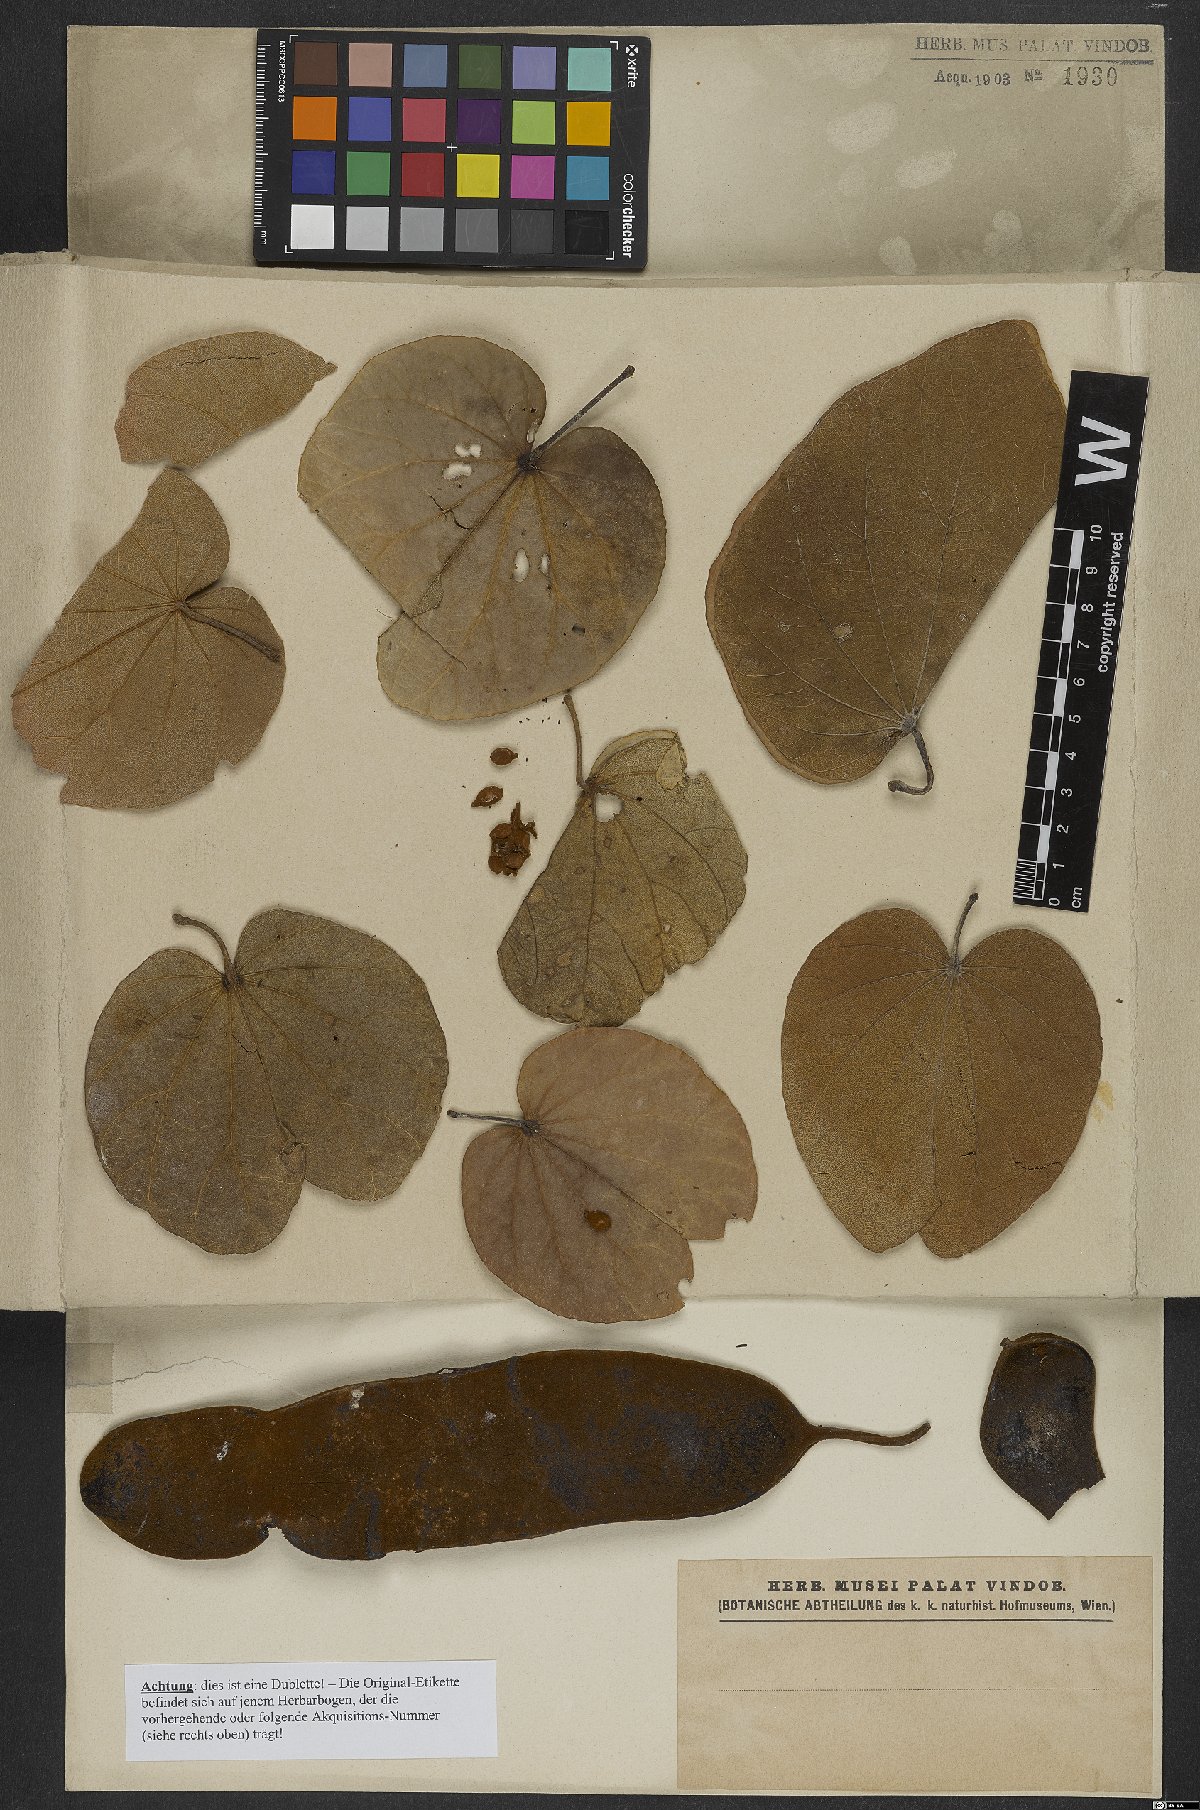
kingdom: Plantae
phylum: Tracheophyta
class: Magnoliopsida
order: Fabales
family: Fabaceae
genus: Bauhinia
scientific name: Bauhinia
